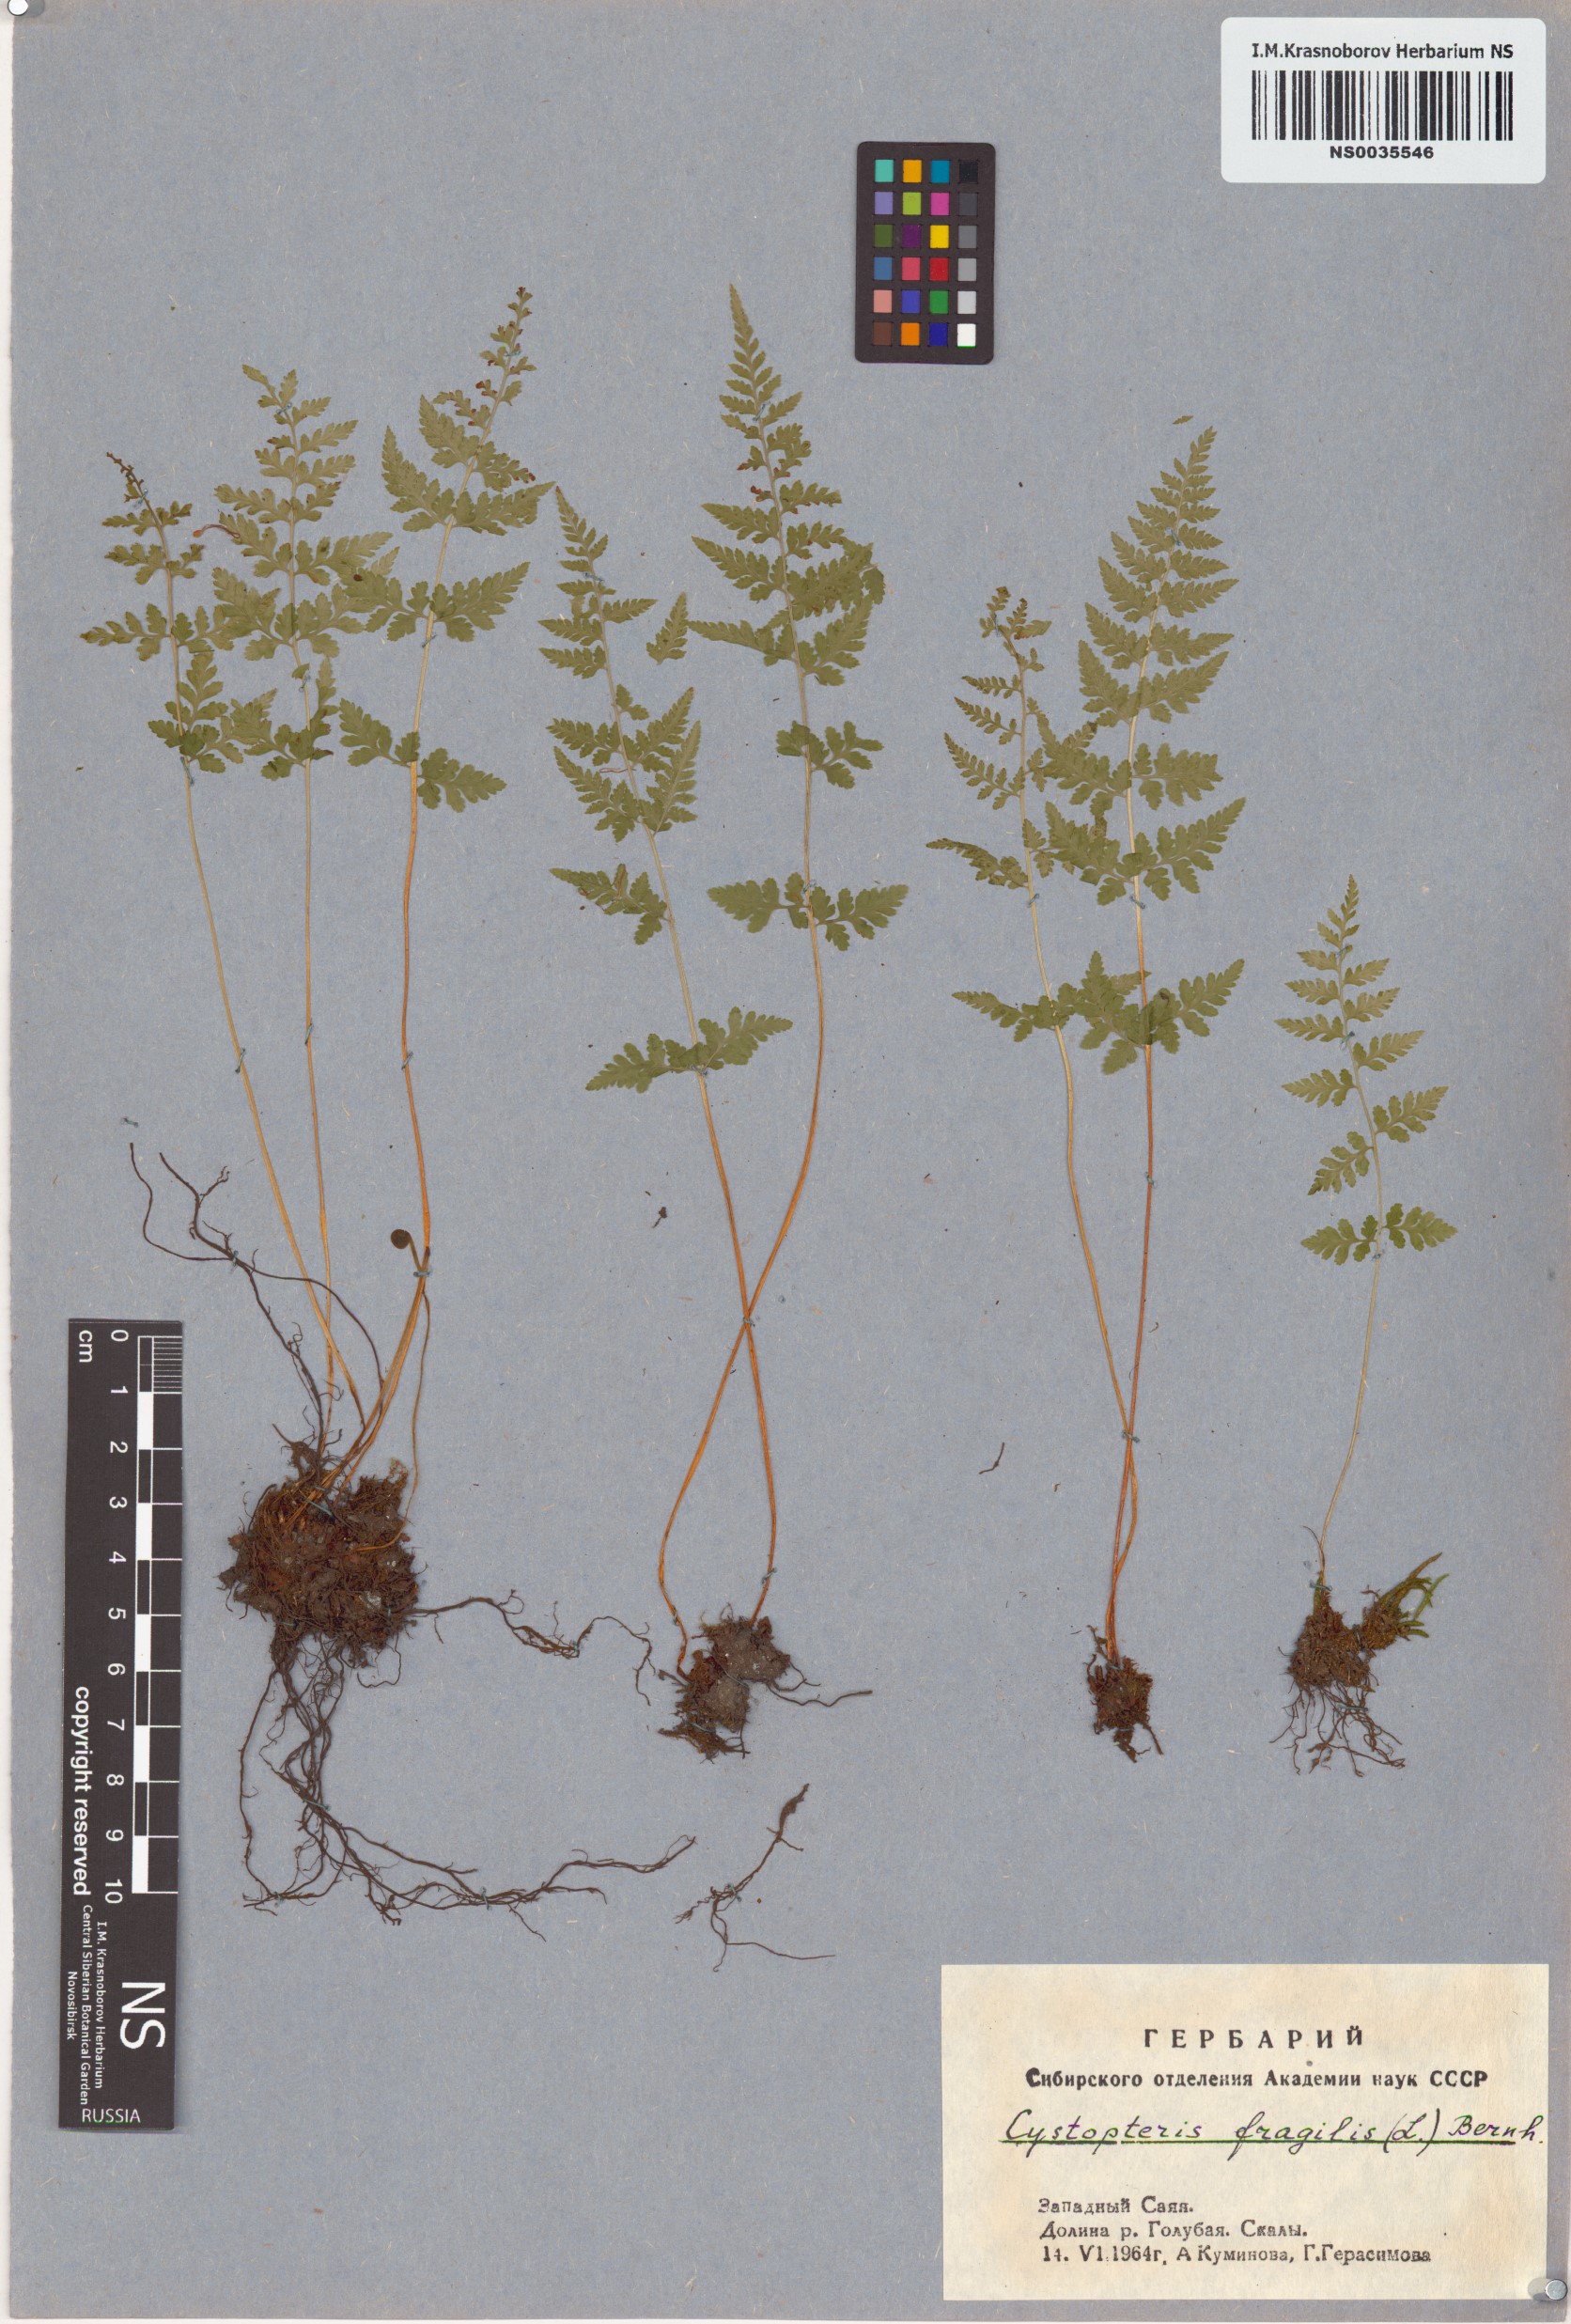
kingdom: Plantae
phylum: Tracheophyta
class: Polypodiopsida
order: Polypodiales
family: Cystopteridaceae
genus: Cystopteris
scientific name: Cystopteris fragilis
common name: Brittle bladder fern
